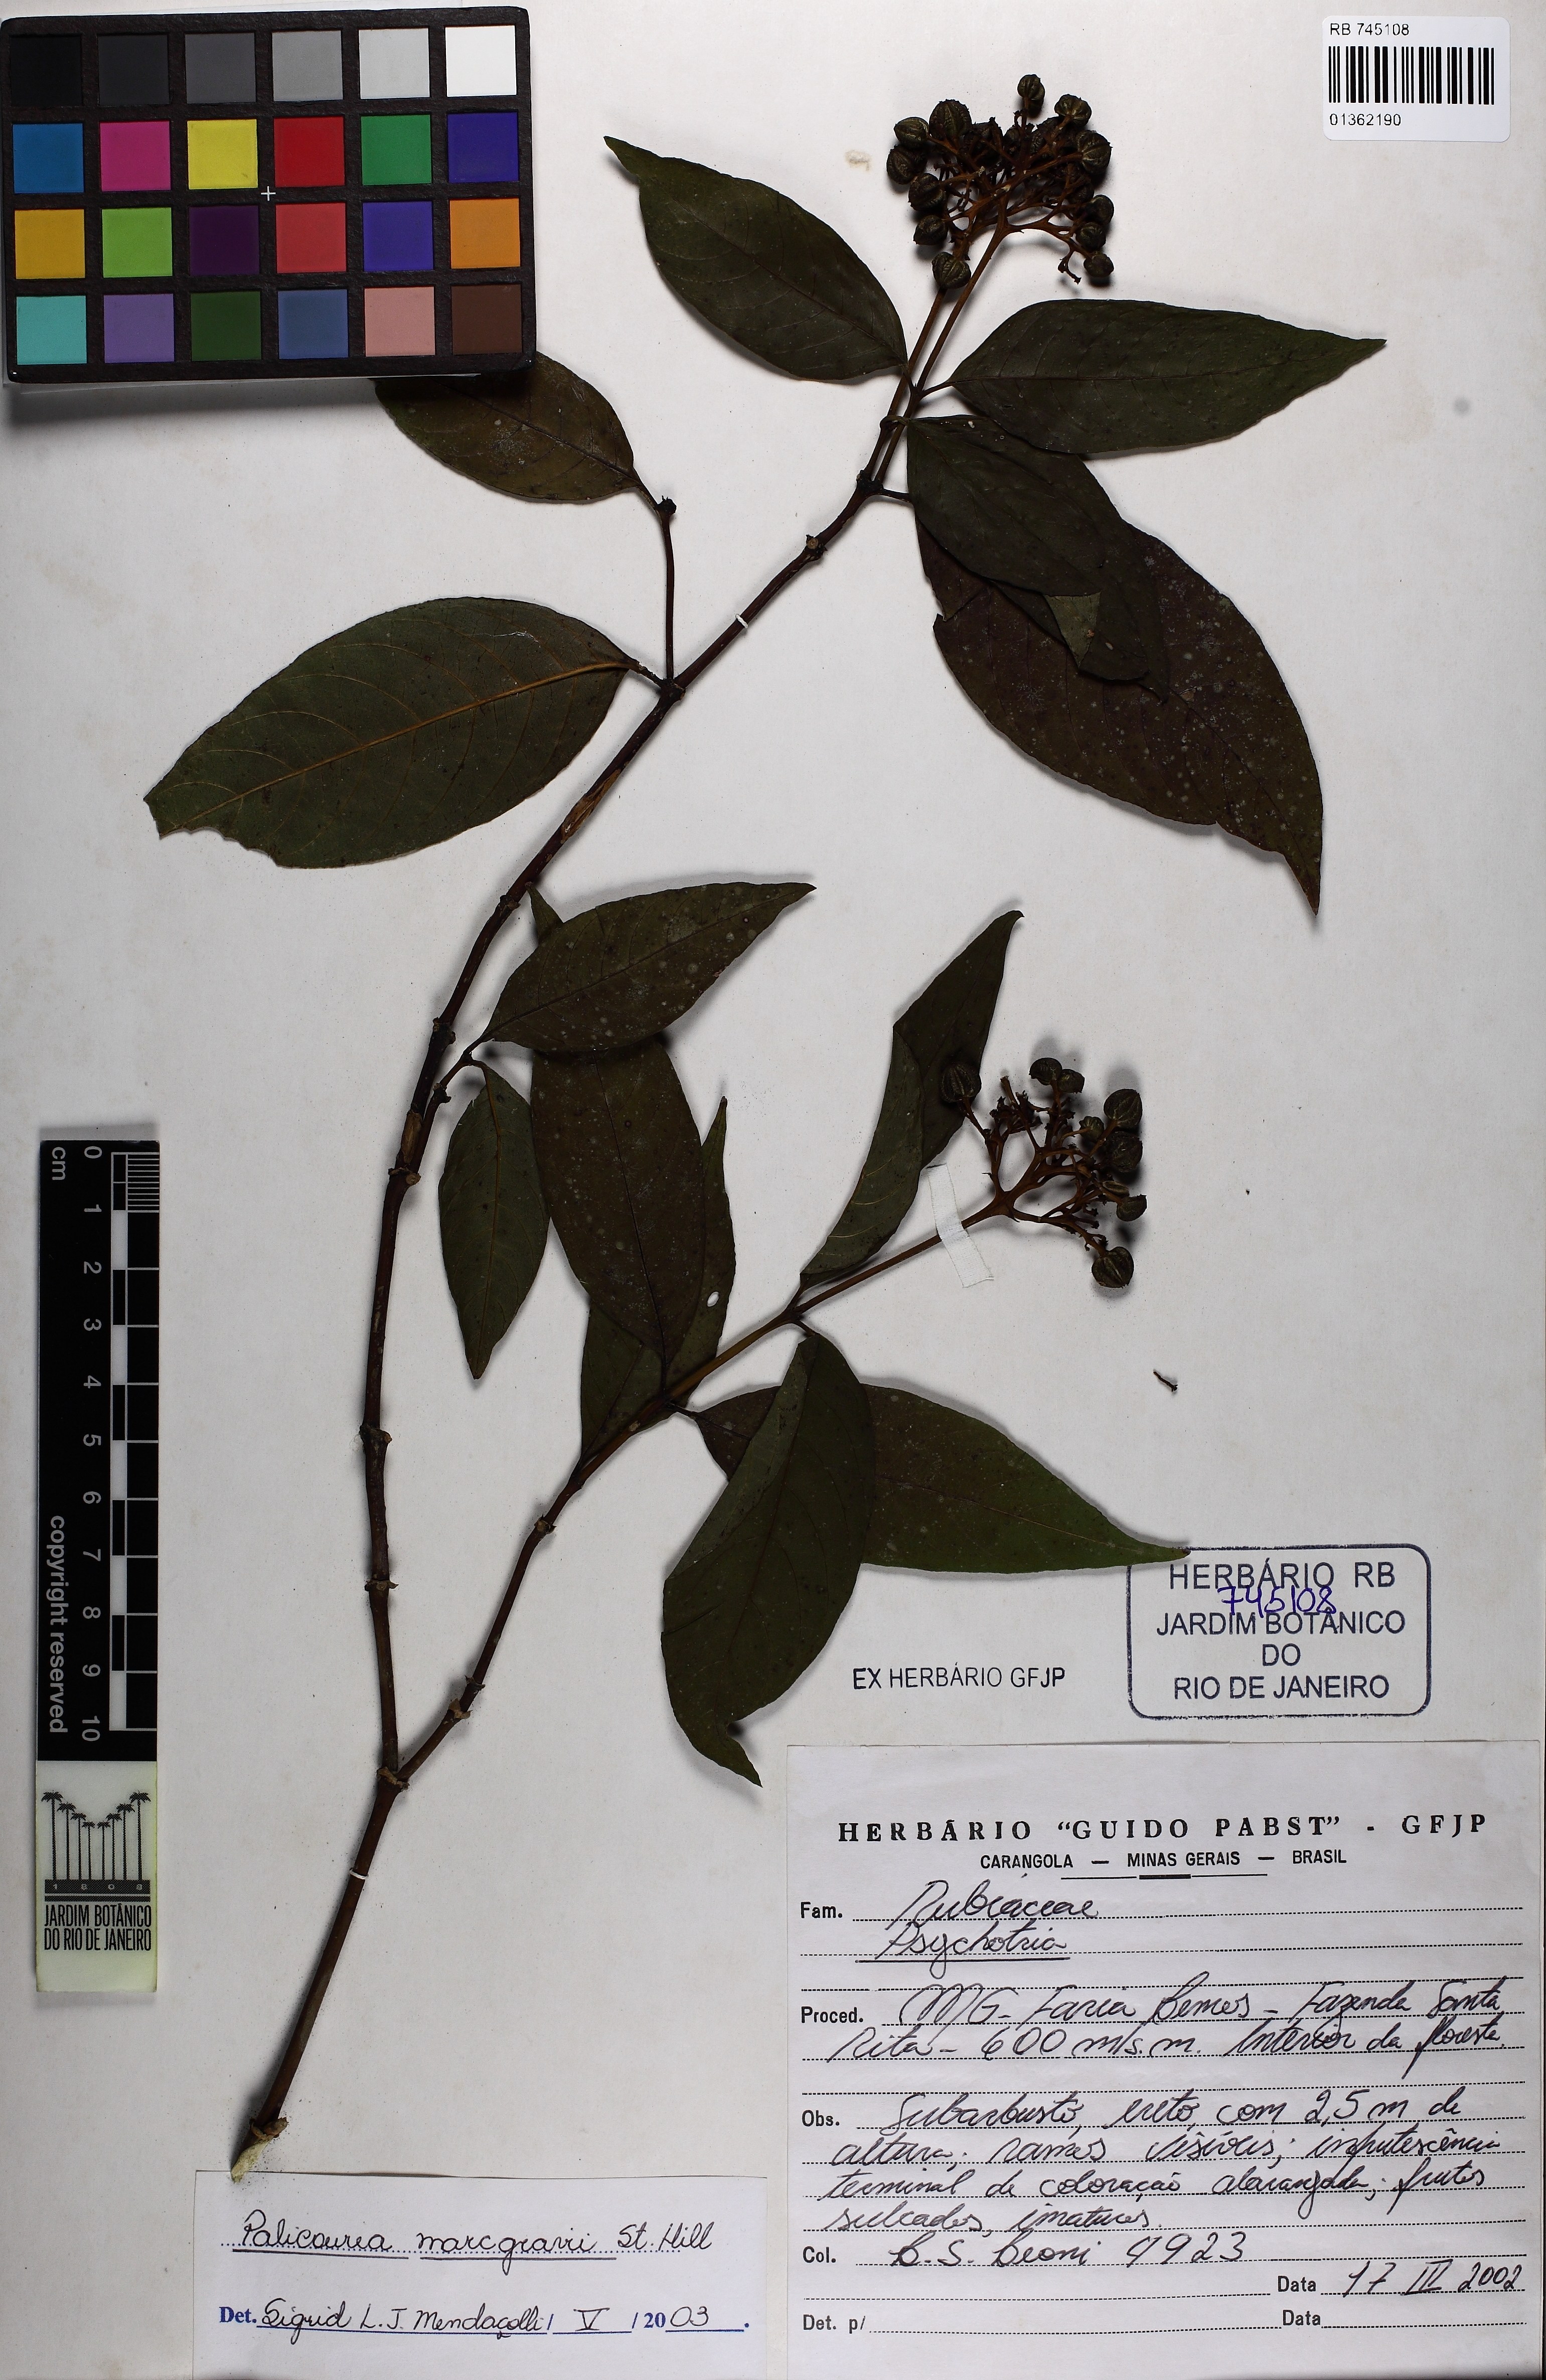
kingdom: Plantae
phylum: Tracheophyta
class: Magnoliopsida
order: Gentianales
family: Rubiaceae
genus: Palicourea
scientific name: Palicourea marcgravii
